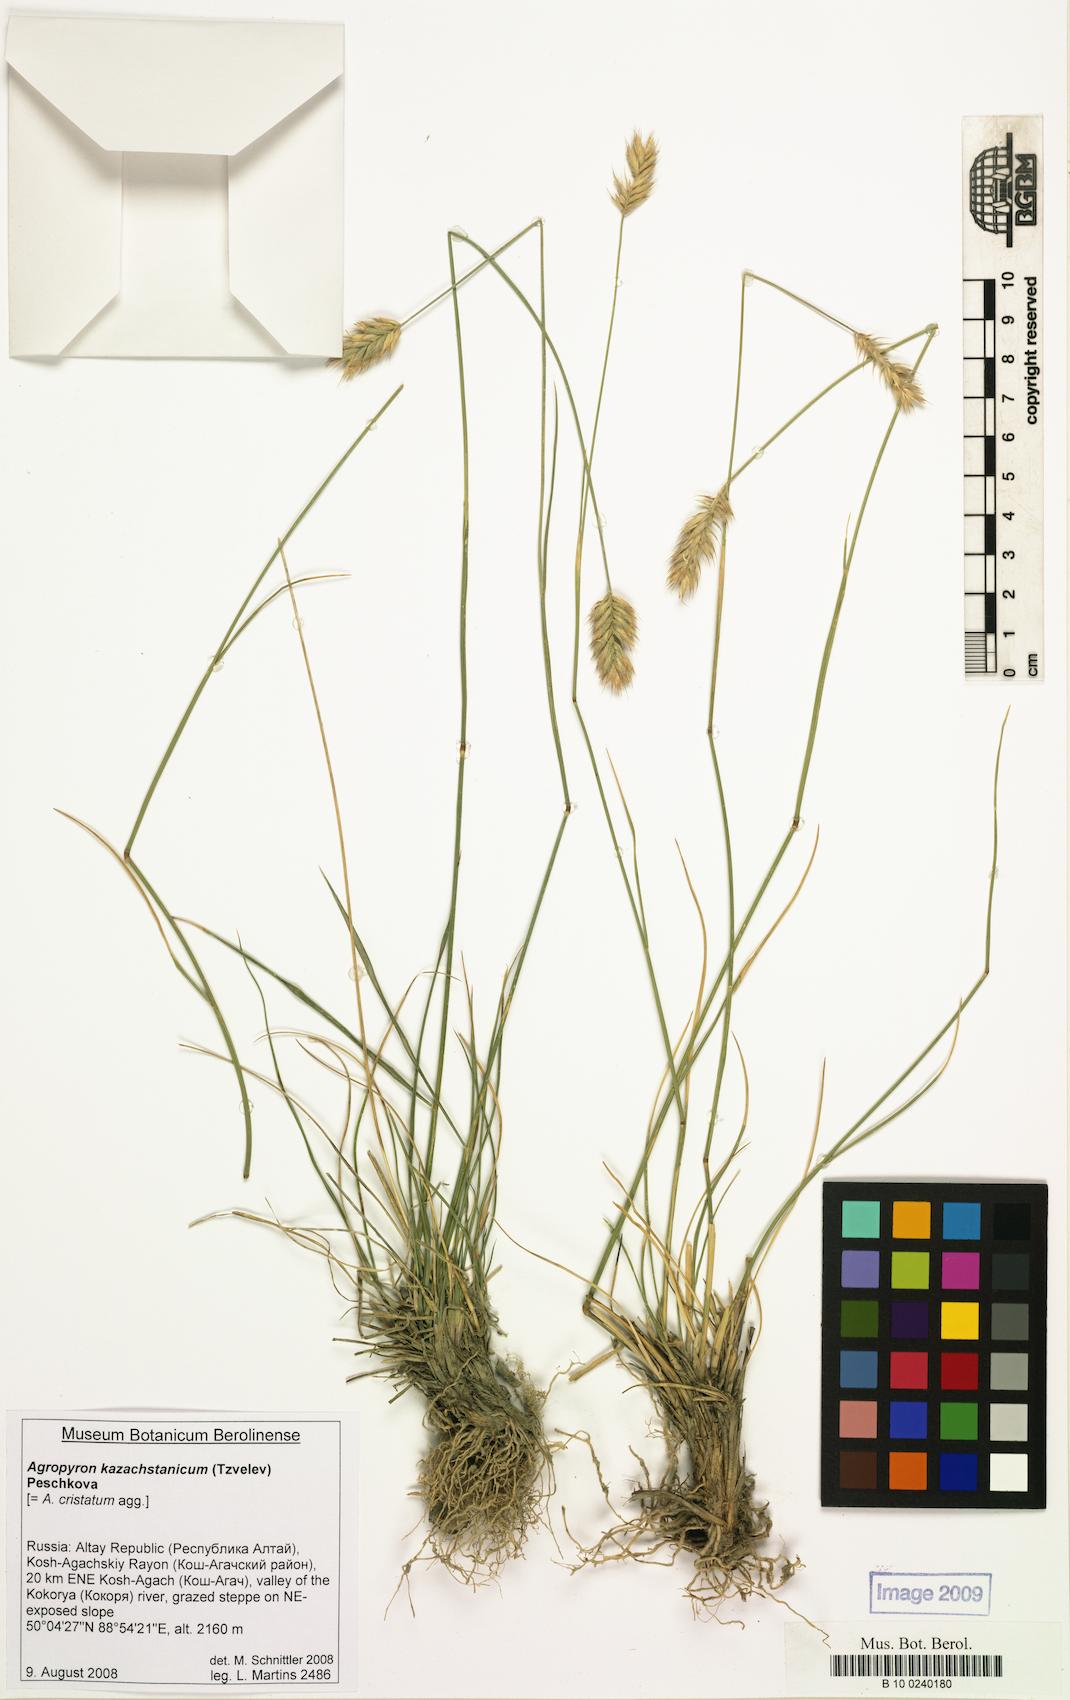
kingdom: Plantae
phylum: Tracheophyta
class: Liliopsida
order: Poales
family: Poaceae
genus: Agropyron
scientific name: Agropyron cristatum
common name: Crested wheatgrass
